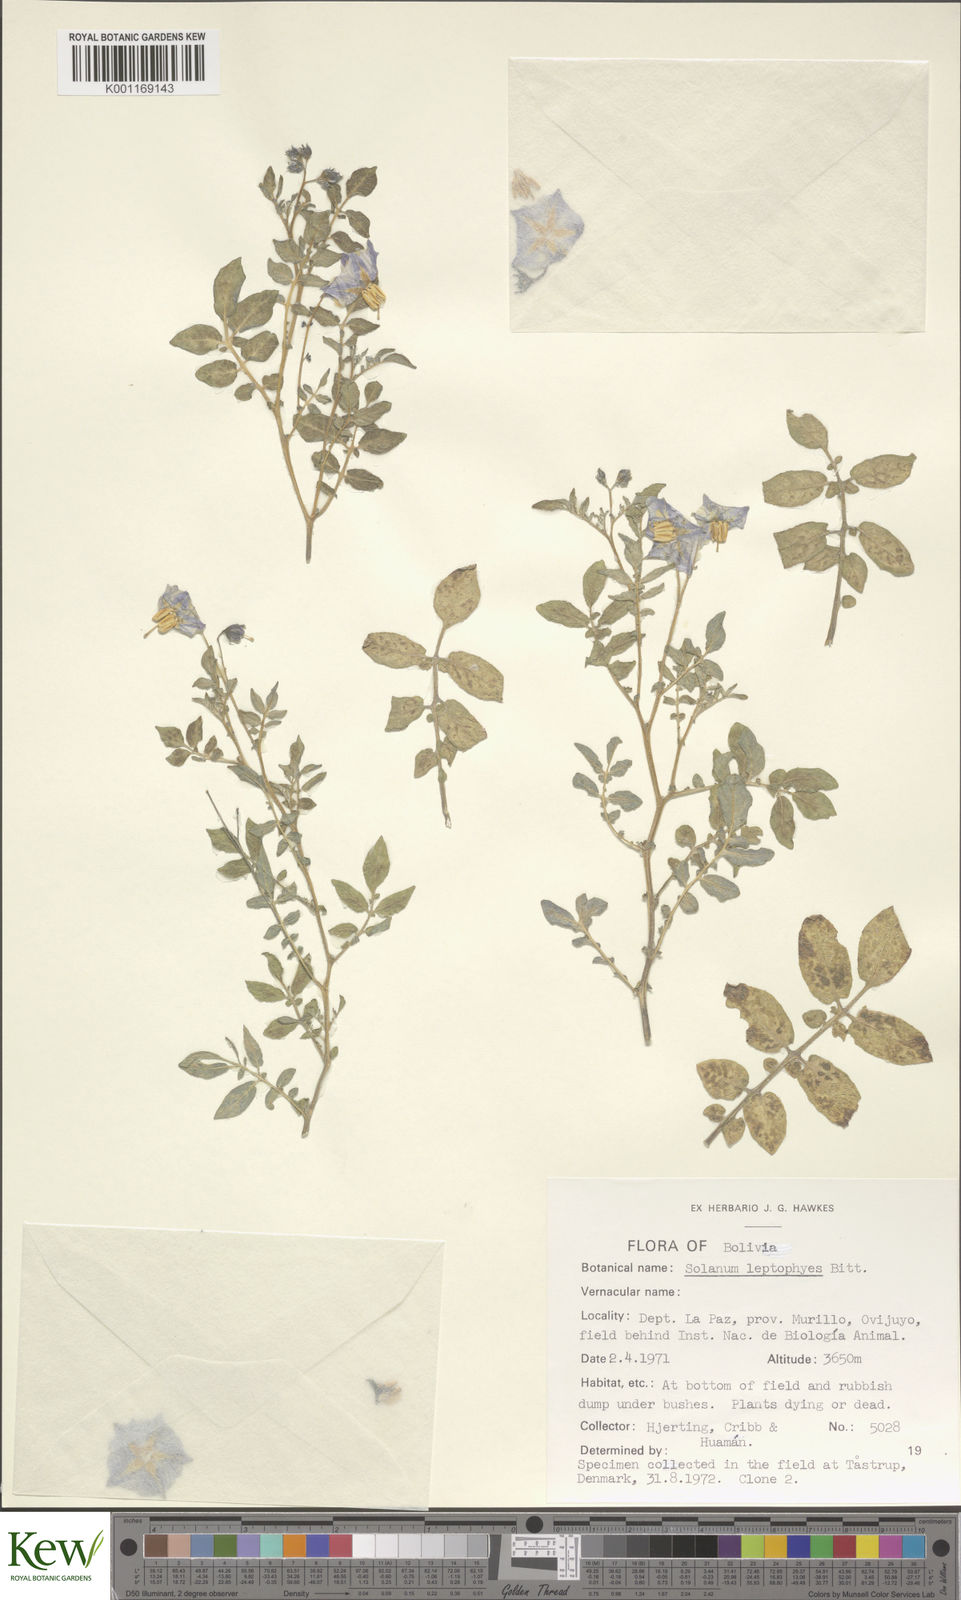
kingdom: Plantae
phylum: Tracheophyta
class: Magnoliopsida
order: Solanales
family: Solanaceae
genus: Solanum
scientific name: Solanum brevicaule
